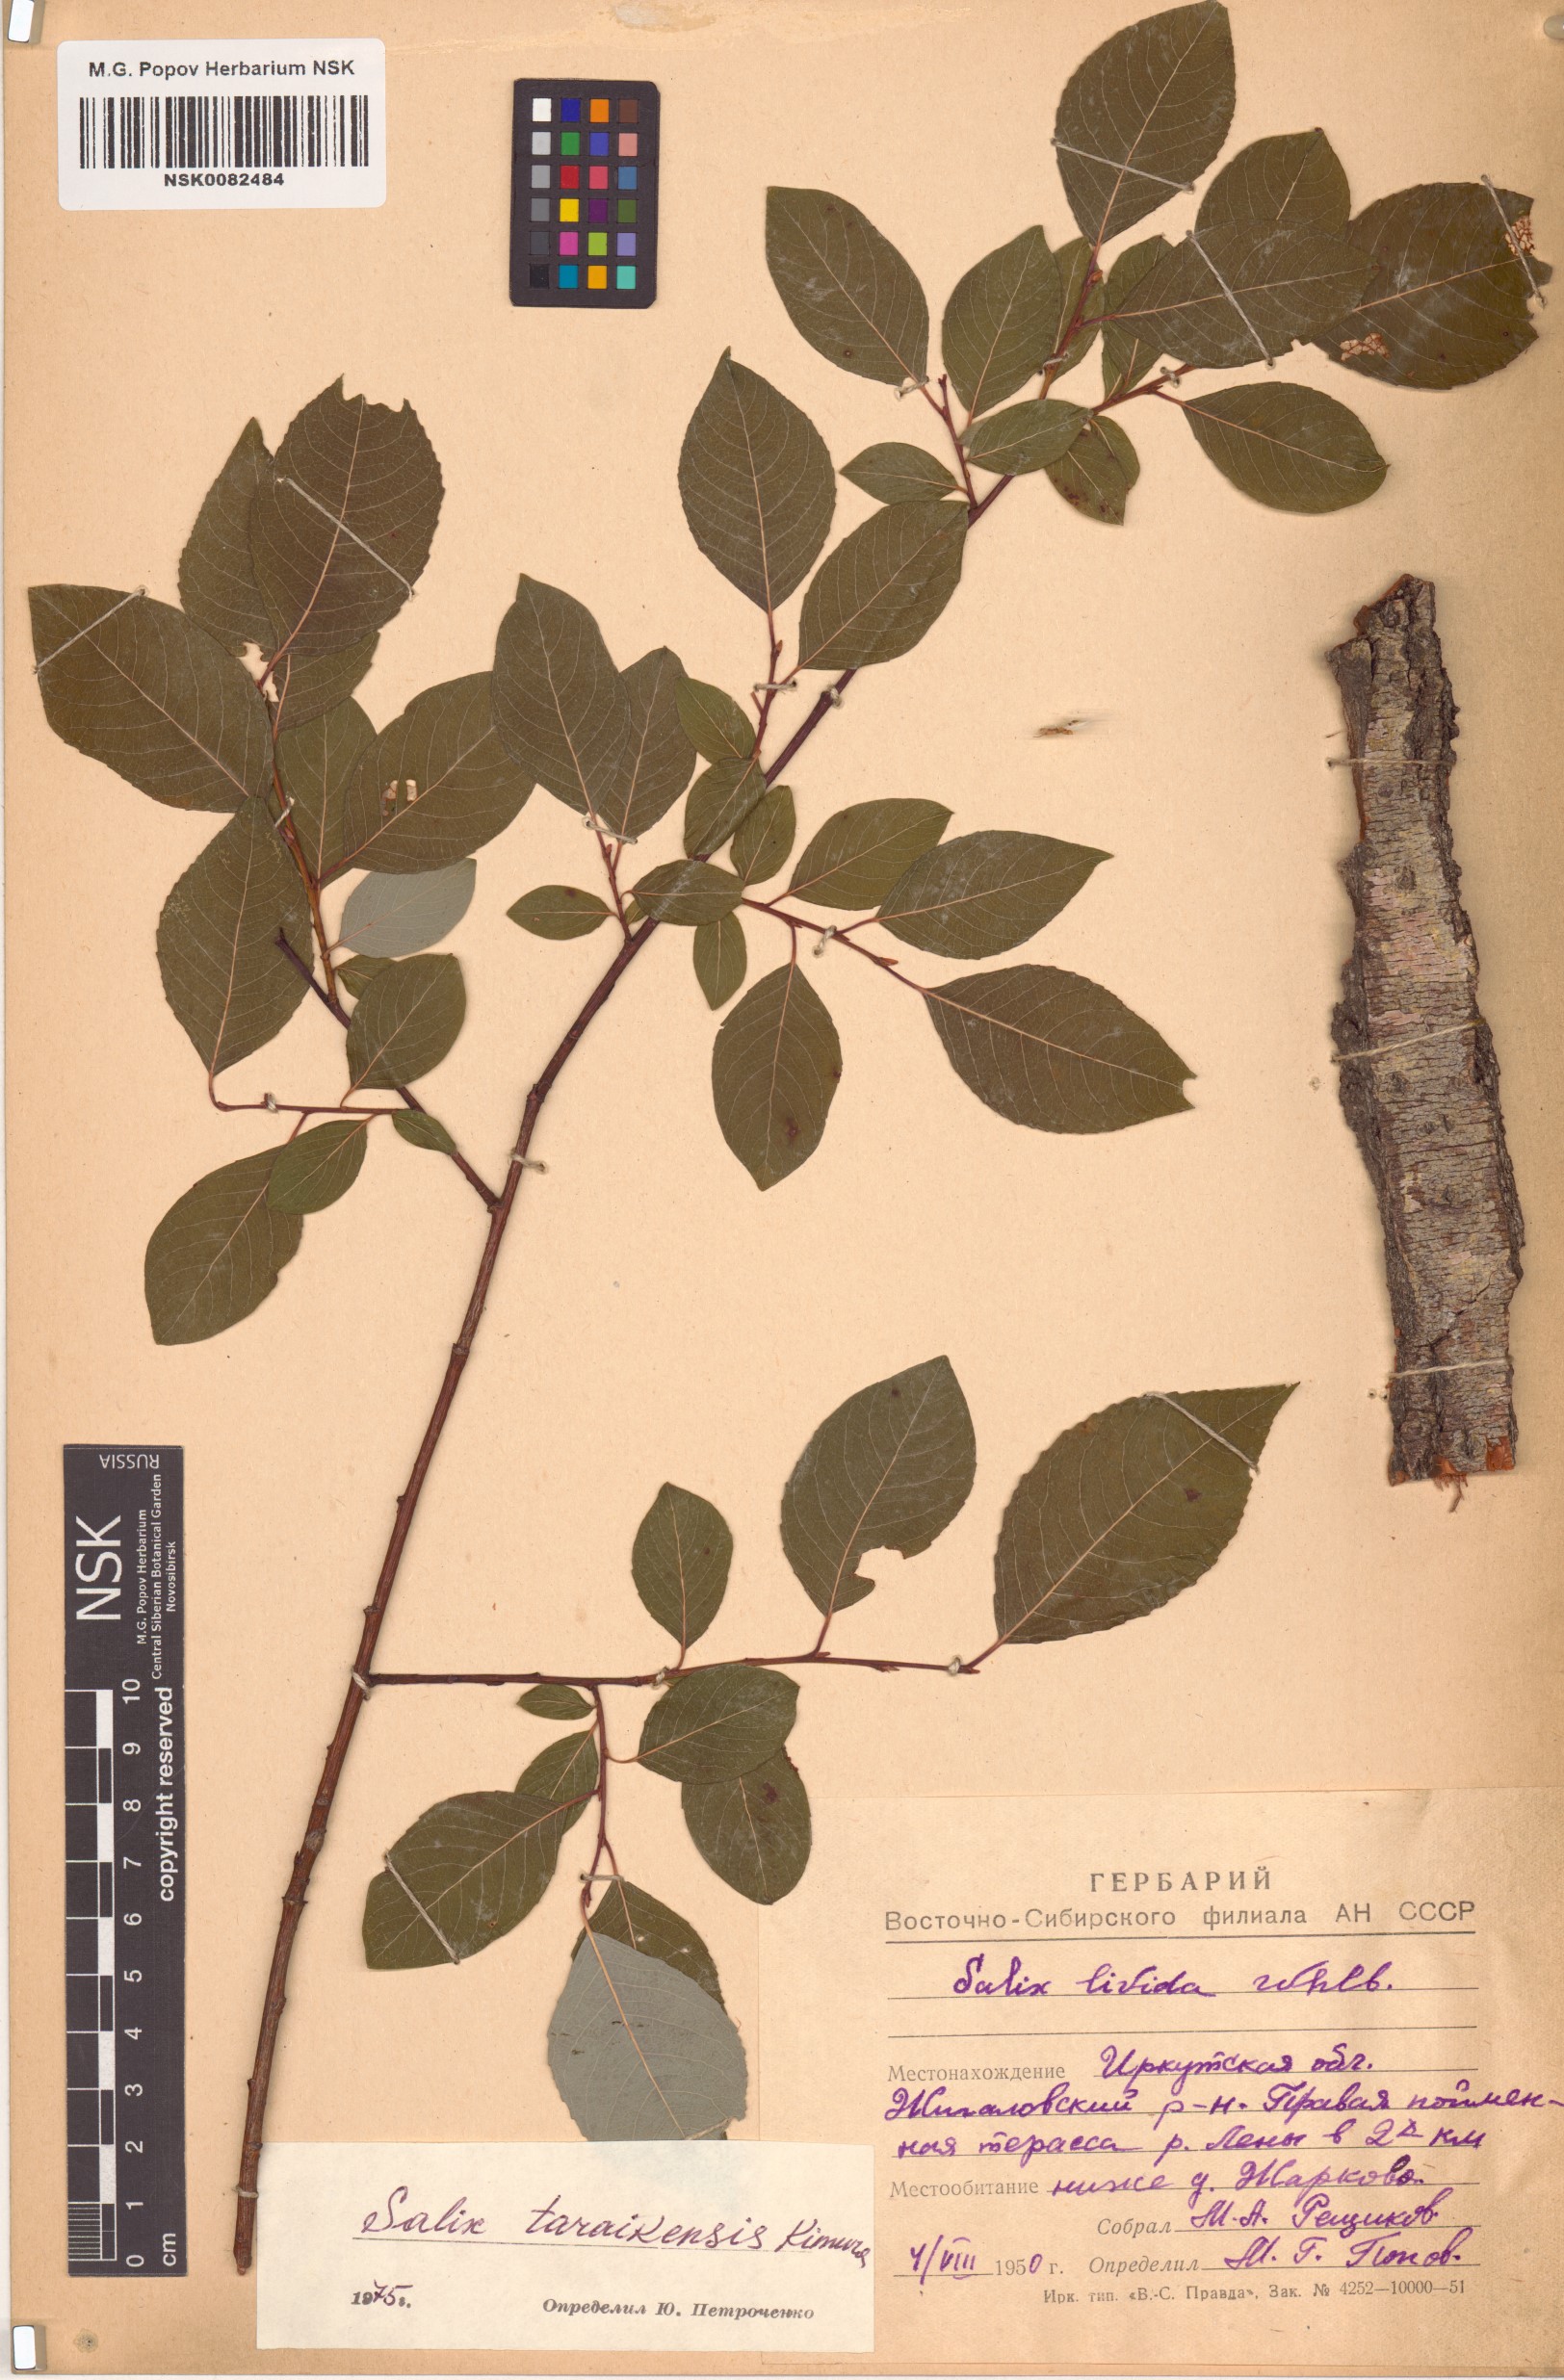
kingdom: Plantae
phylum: Tracheophyta
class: Magnoliopsida
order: Malpighiales
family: Salicaceae
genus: Salix
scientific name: Salix taraikensis
